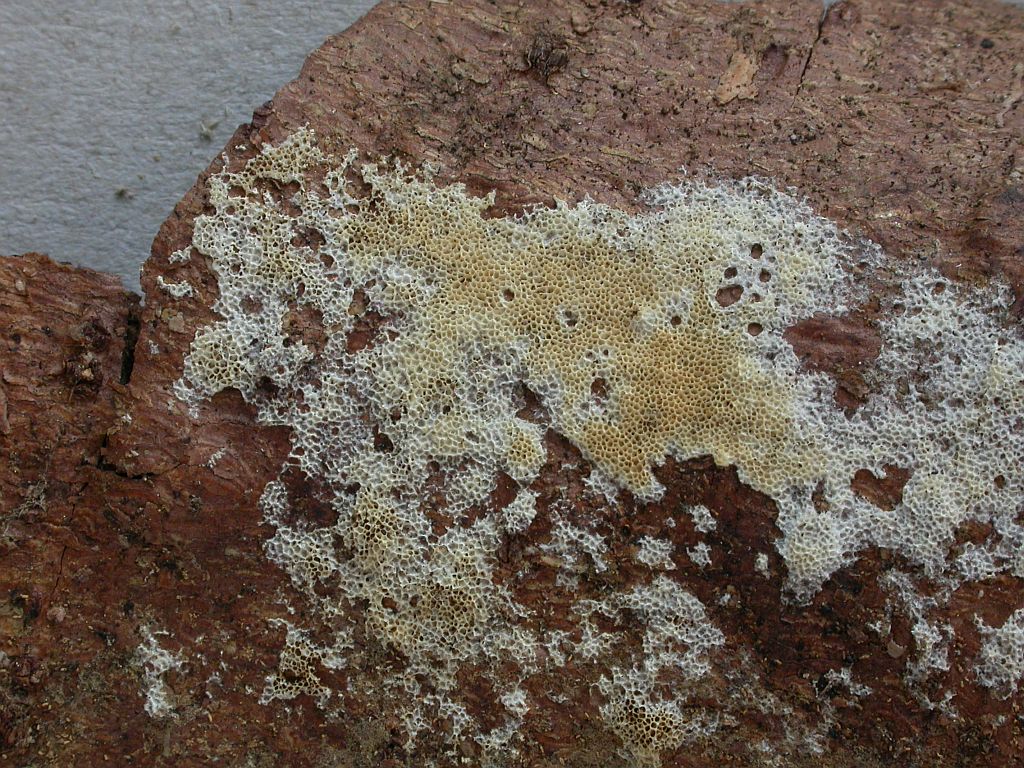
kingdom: Fungi
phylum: Basidiomycota
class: Agaricomycetes
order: Polyporales
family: Irpicaceae
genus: Ceriporia
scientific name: Ceriporia reticulata
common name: netagtig voksporesvamp
